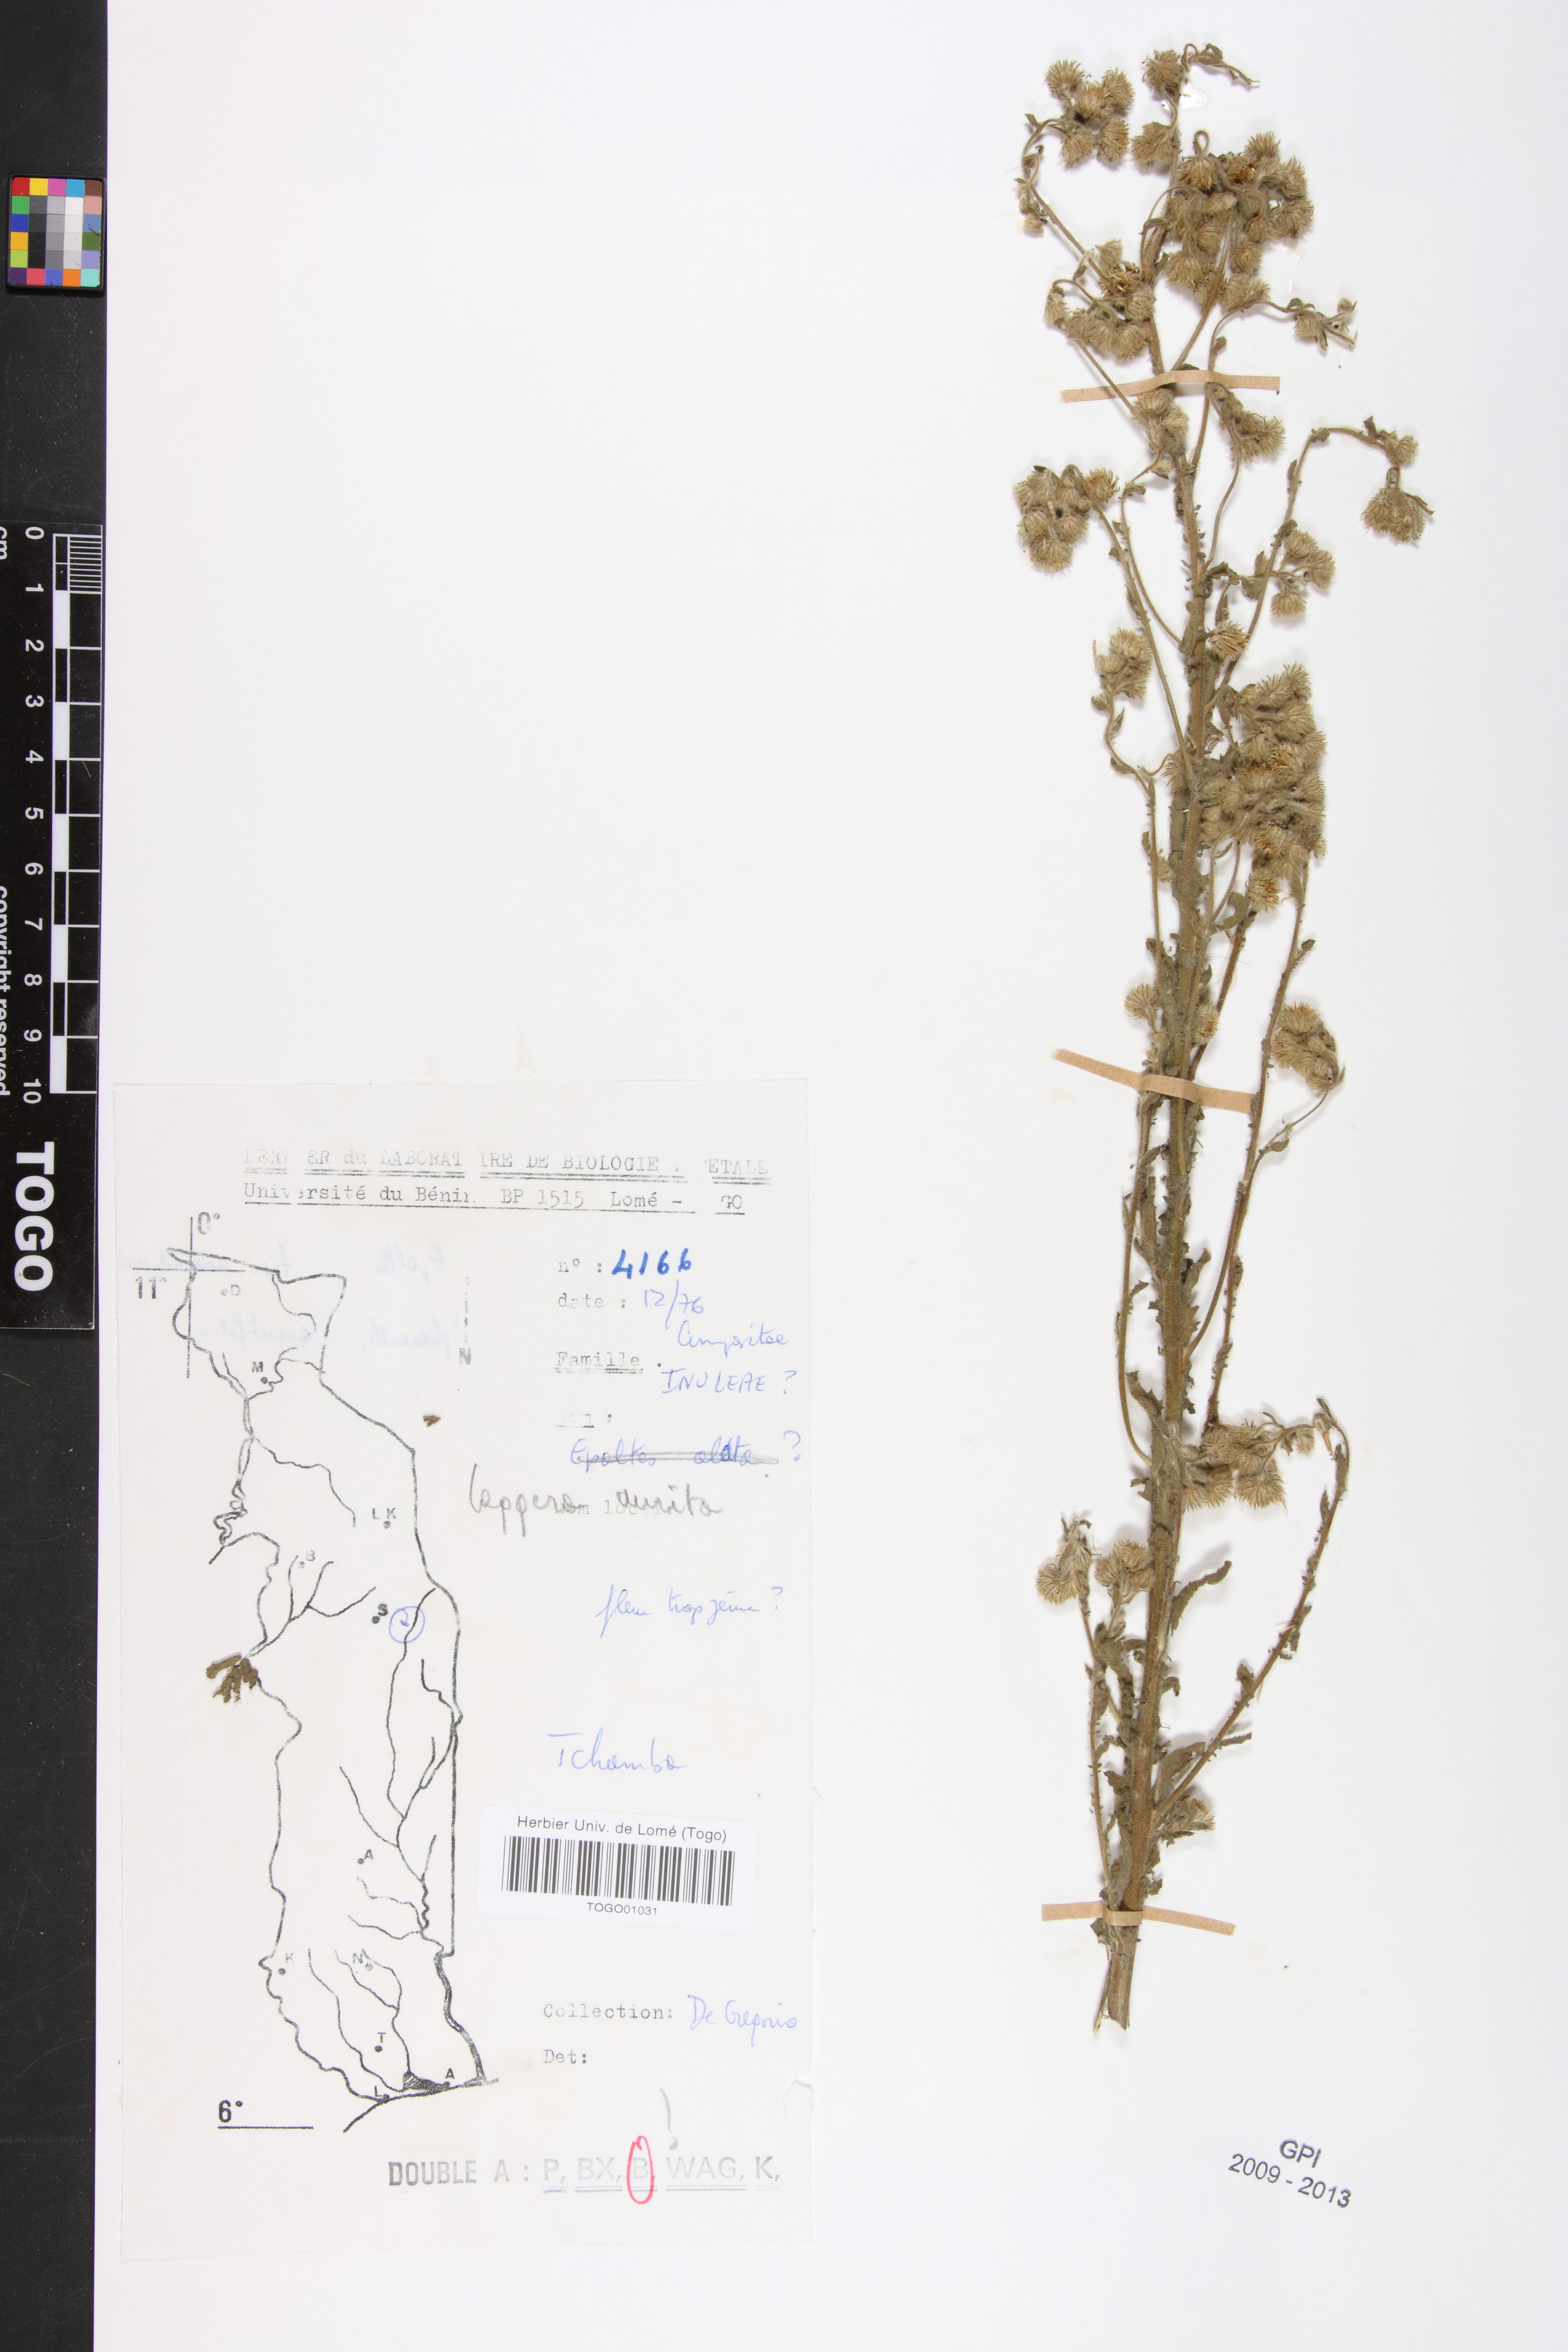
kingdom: Plantae
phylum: Tracheophyta
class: Magnoliopsida
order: Asterales
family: Asteraceae
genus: Pseudoconyza
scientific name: Pseudoconyza viscosa
